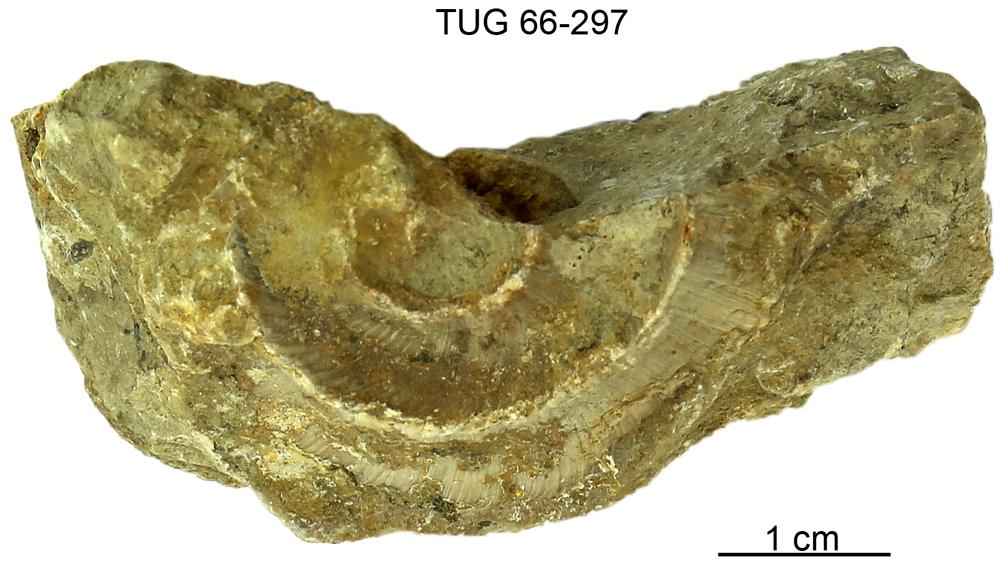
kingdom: Animalia
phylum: Mollusca
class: Cephalopoda
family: Trocholitidae
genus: Schroederoceras
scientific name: Schroederoceras
